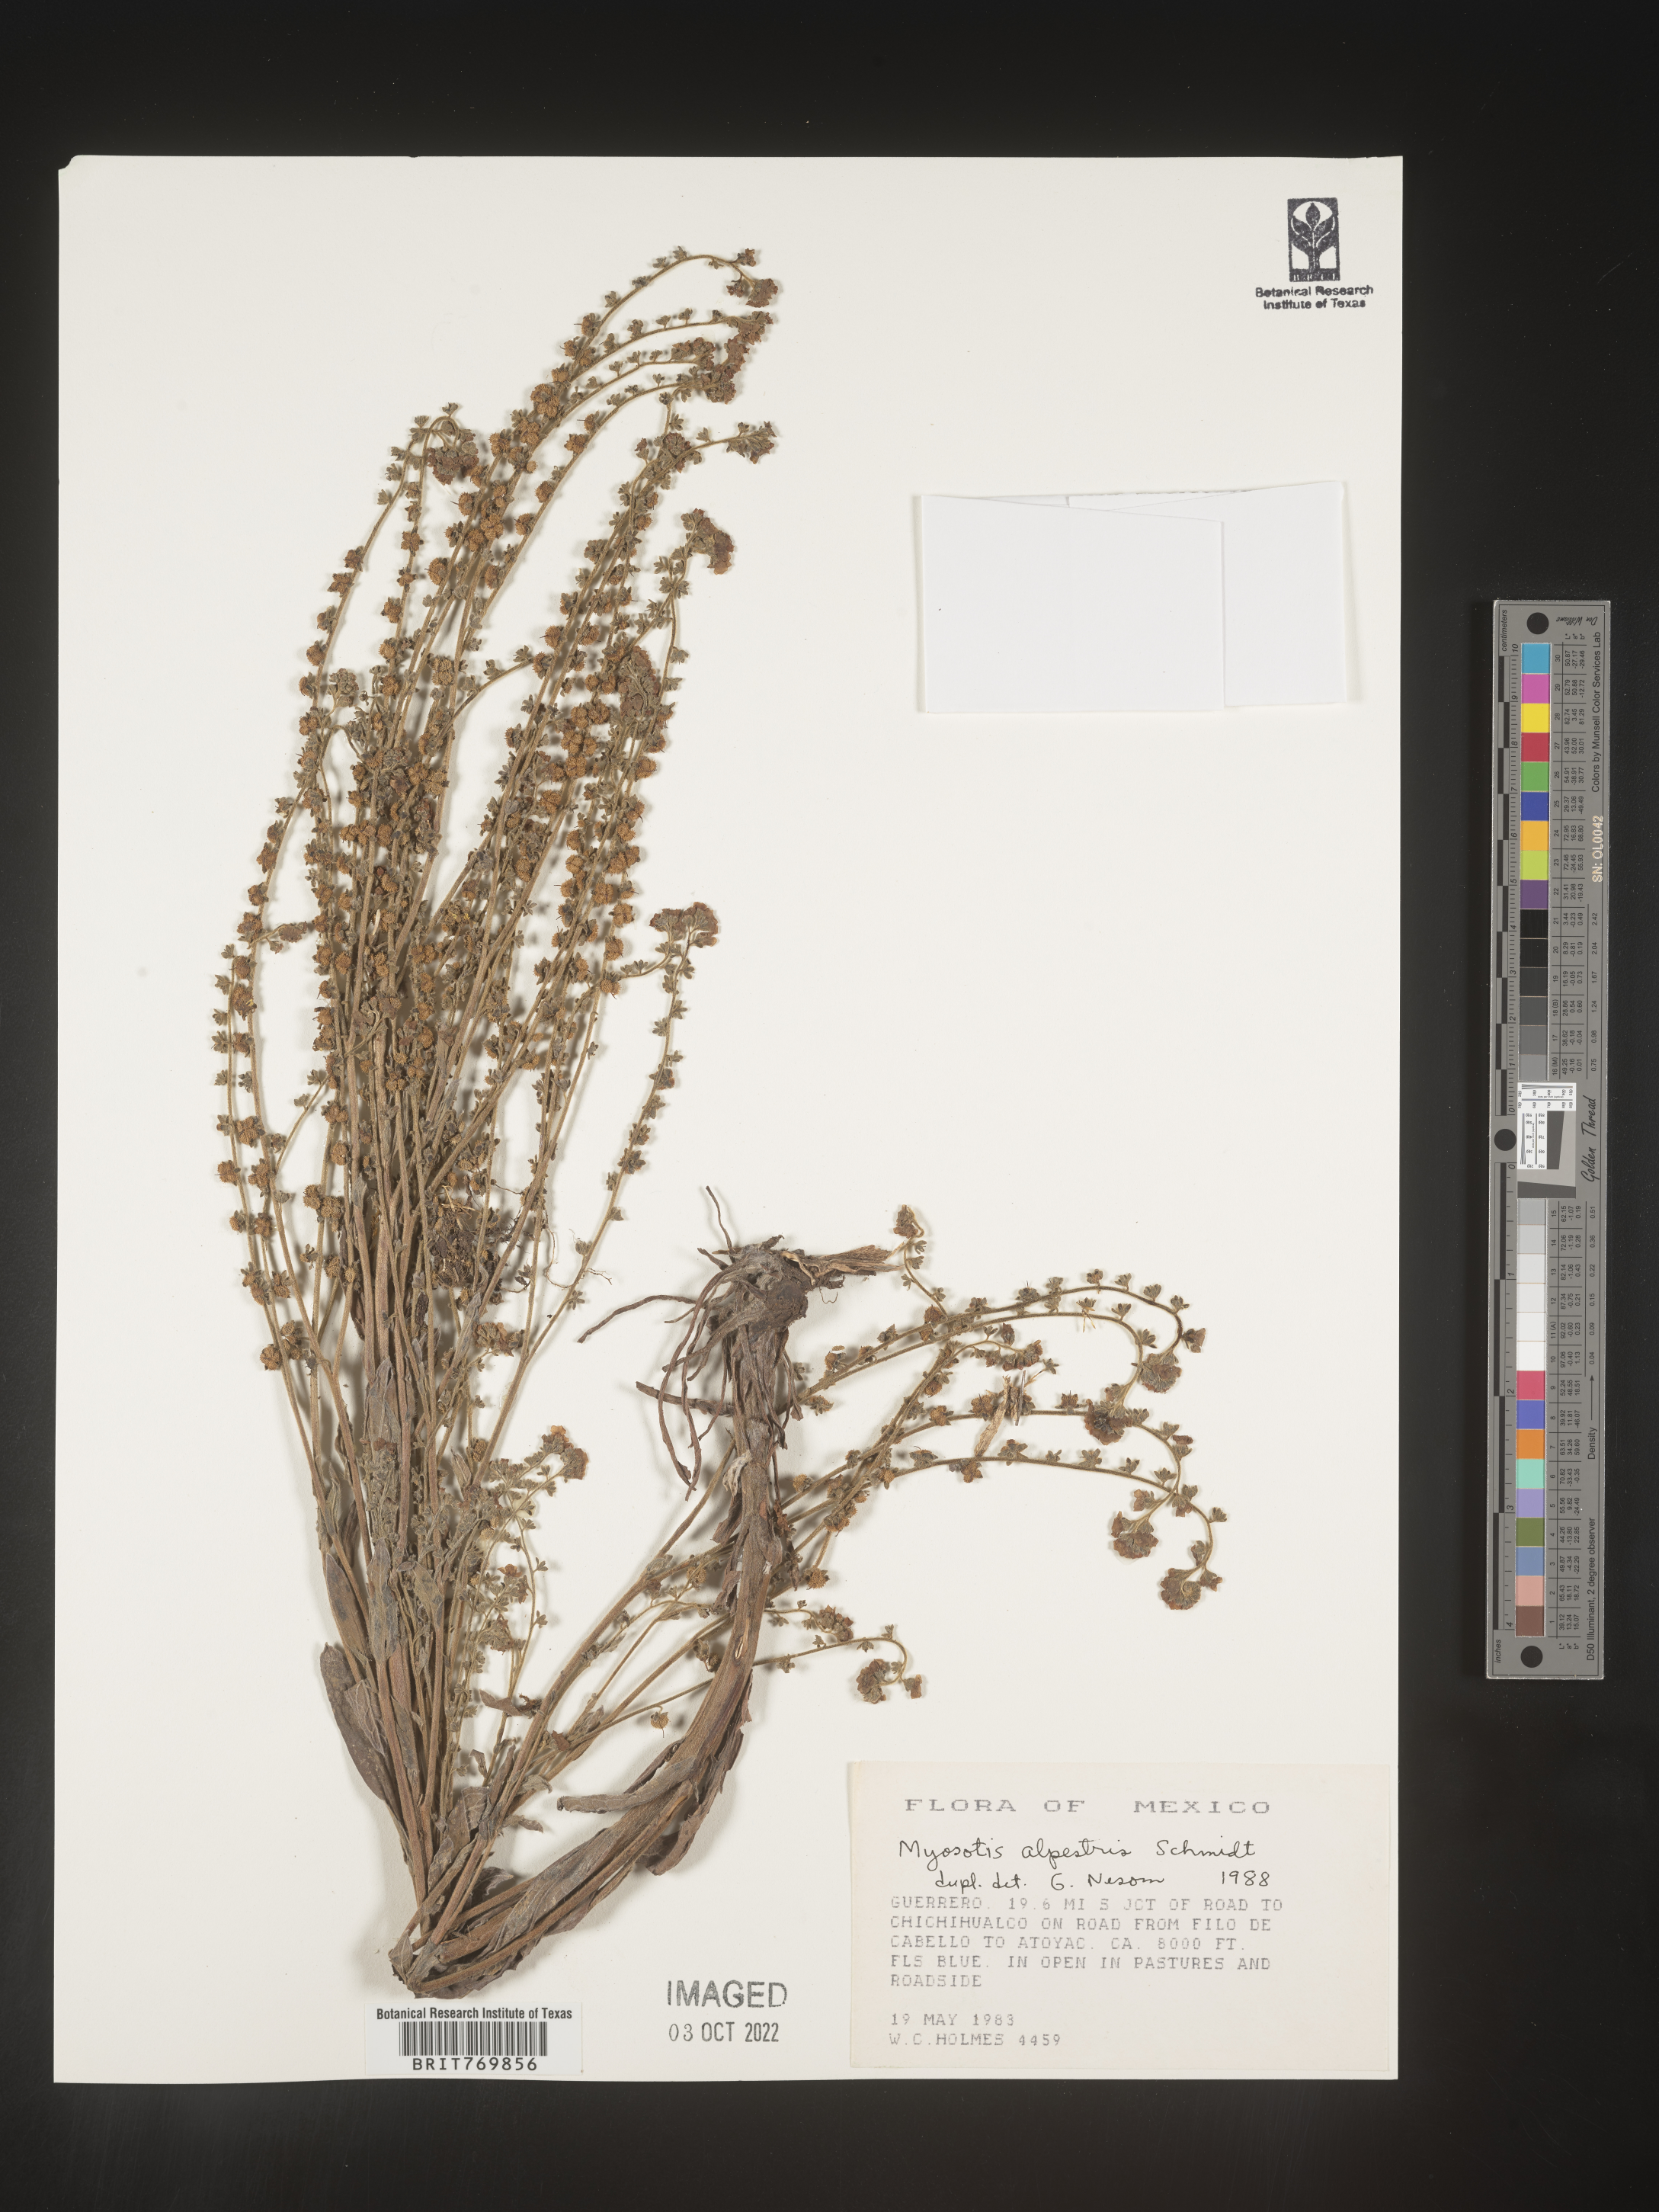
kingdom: Plantae
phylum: Tracheophyta
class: Magnoliopsida
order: Boraginales
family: Boraginaceae
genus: Myosotis
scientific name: Myosotis
